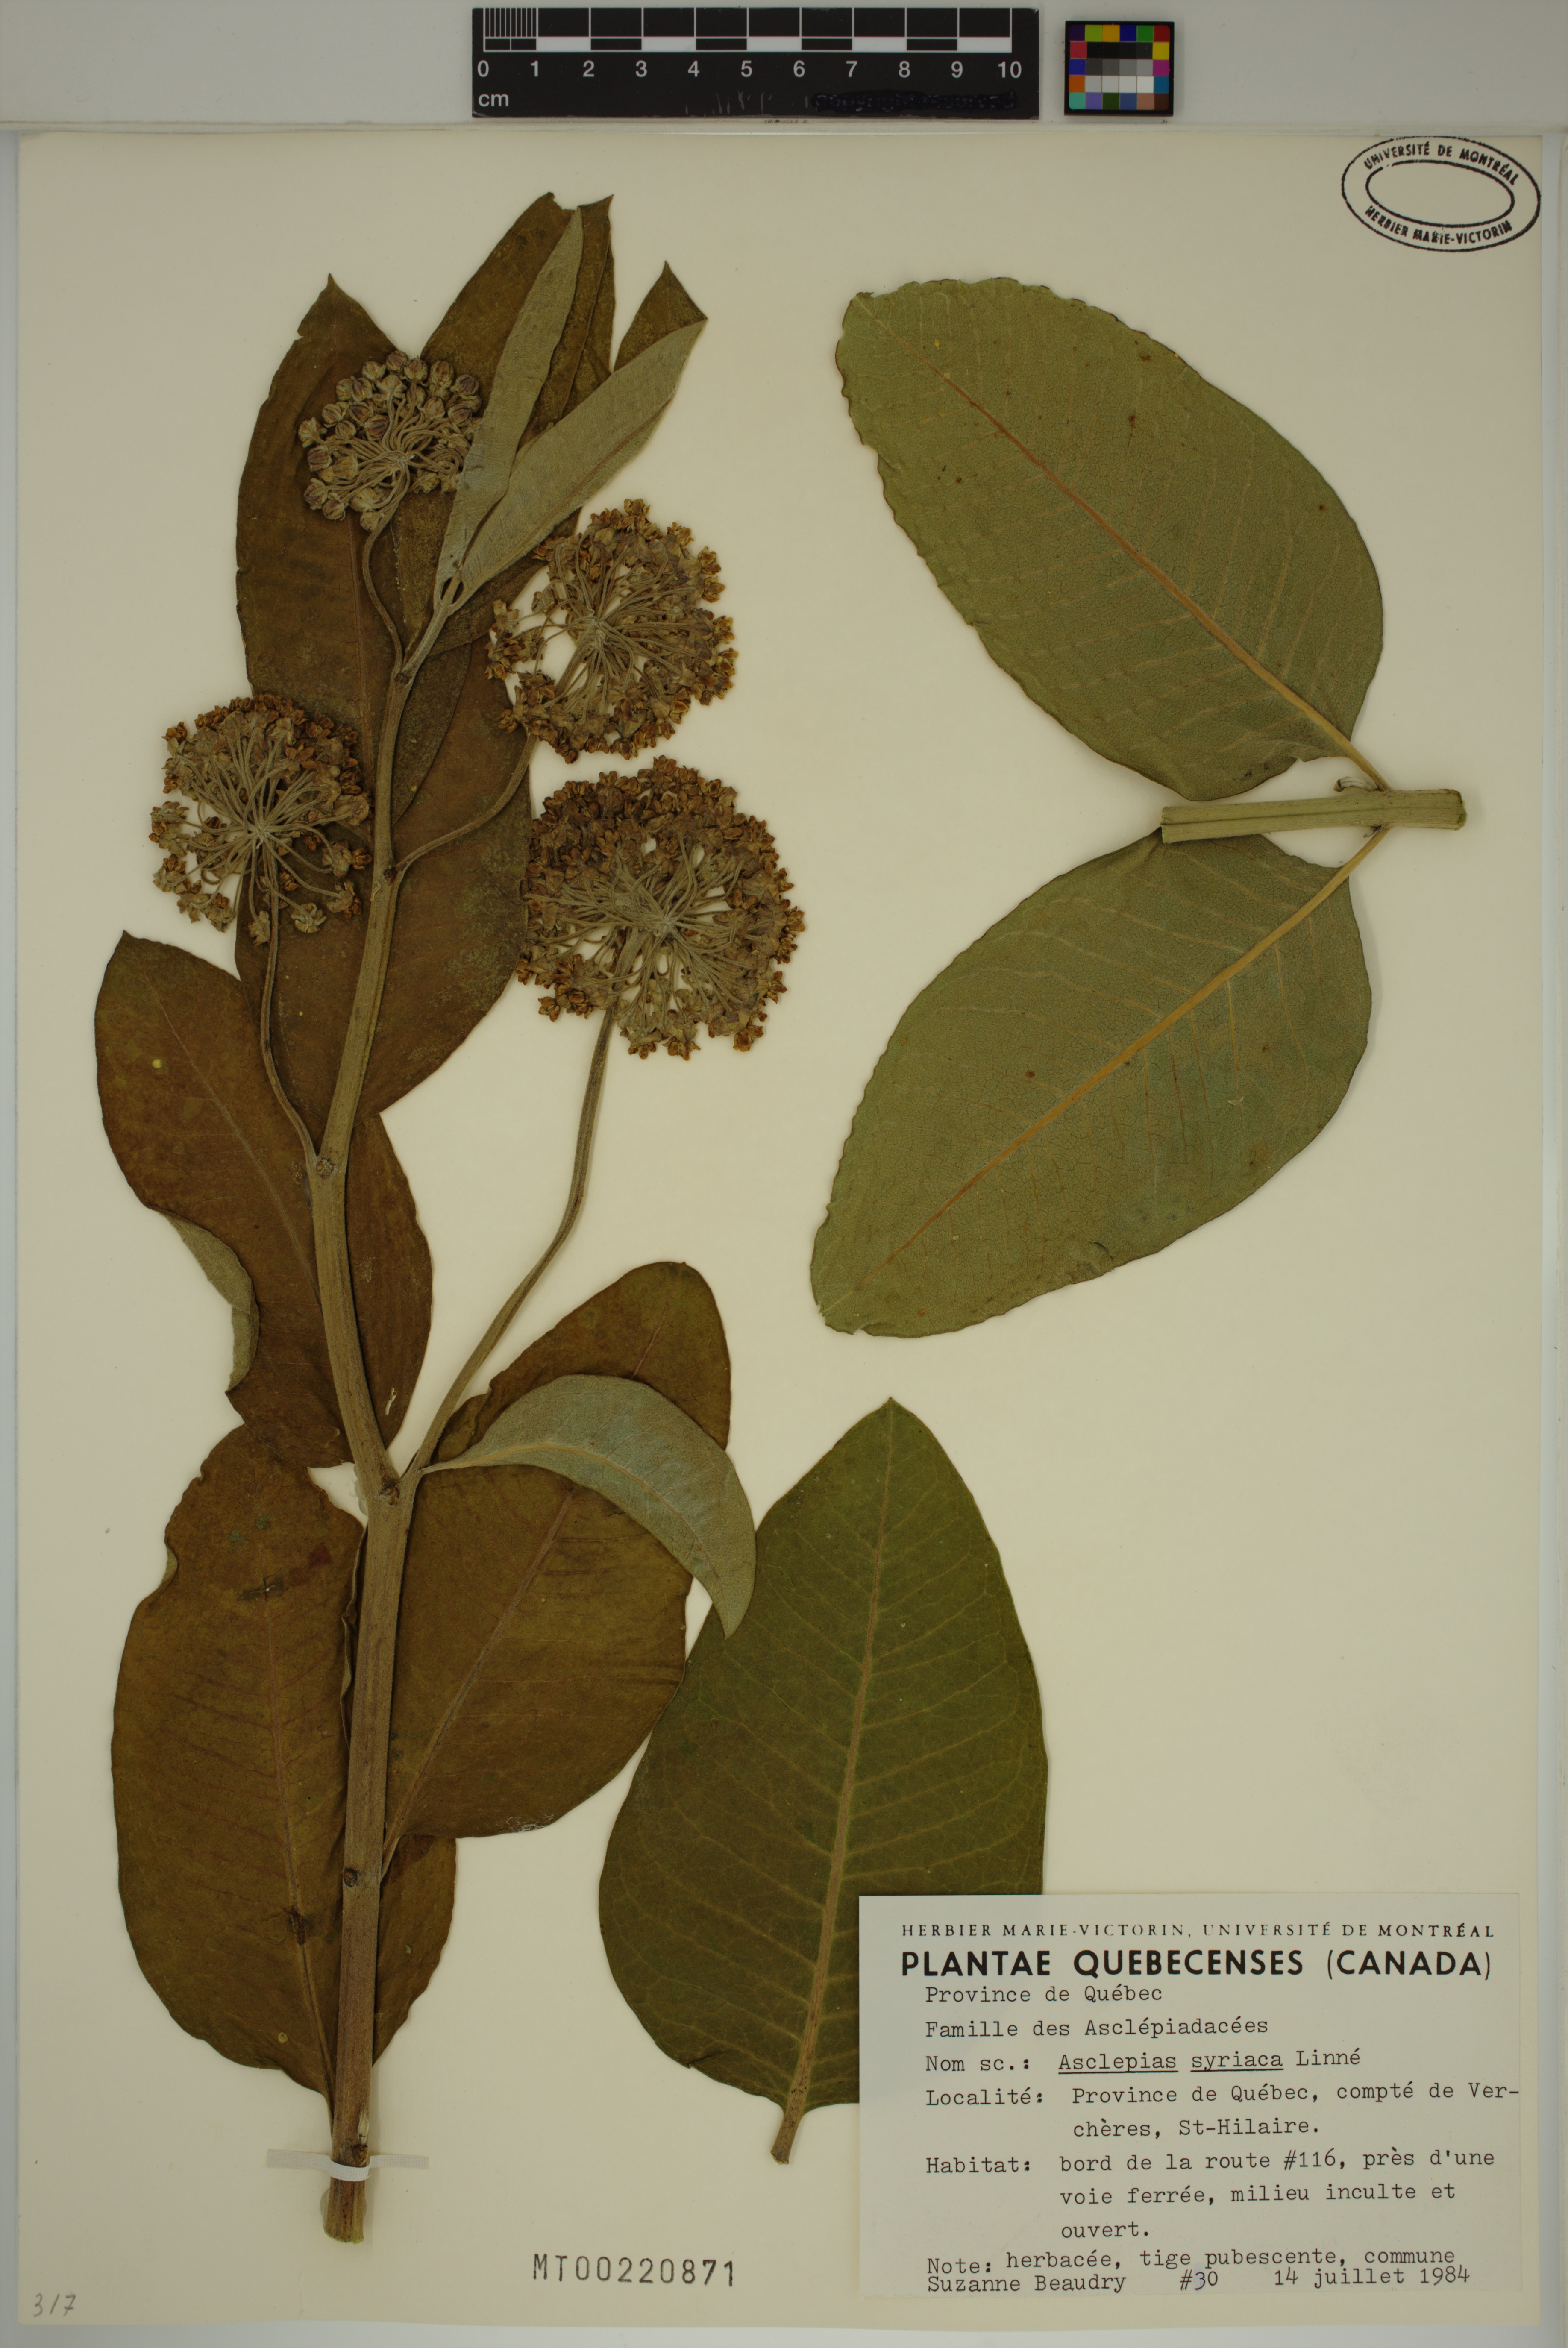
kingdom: Plantae
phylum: Tracheophyta
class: Magnoliopsida
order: Gentianales
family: Apocynaceae
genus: Asclepias
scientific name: Asclepias syriaca
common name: Common milkweed
